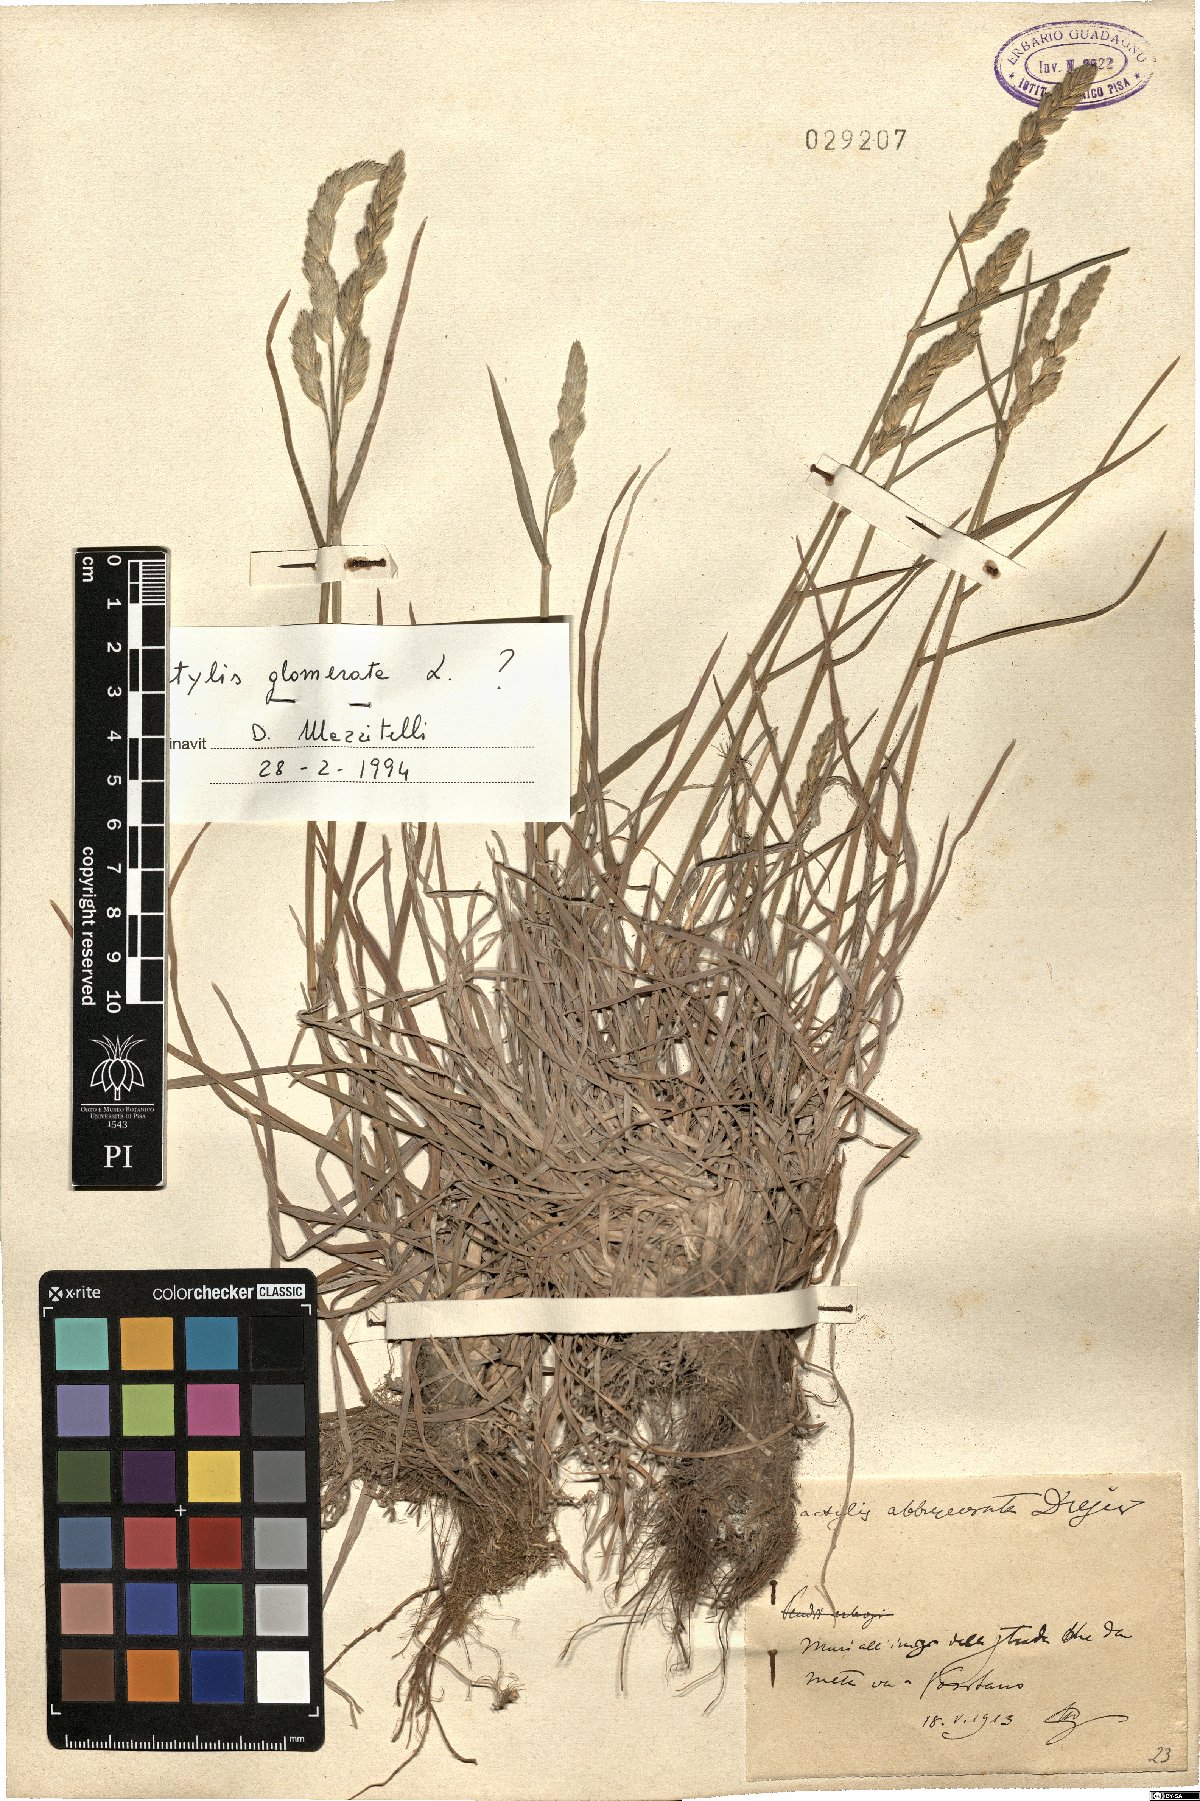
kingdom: Plantae
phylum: Tracheophyta
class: Liliopsida
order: Poales
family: Poaceae
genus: Dactylis
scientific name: Dactylis glomerata
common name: Orchardgrass
